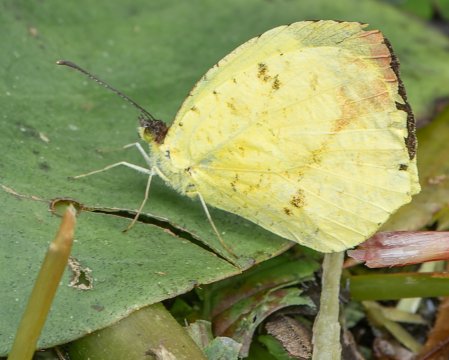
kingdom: Animalia
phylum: Arthropoda
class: Insecta
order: Lepidoptera
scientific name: Lepidoptera
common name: Butterflies
